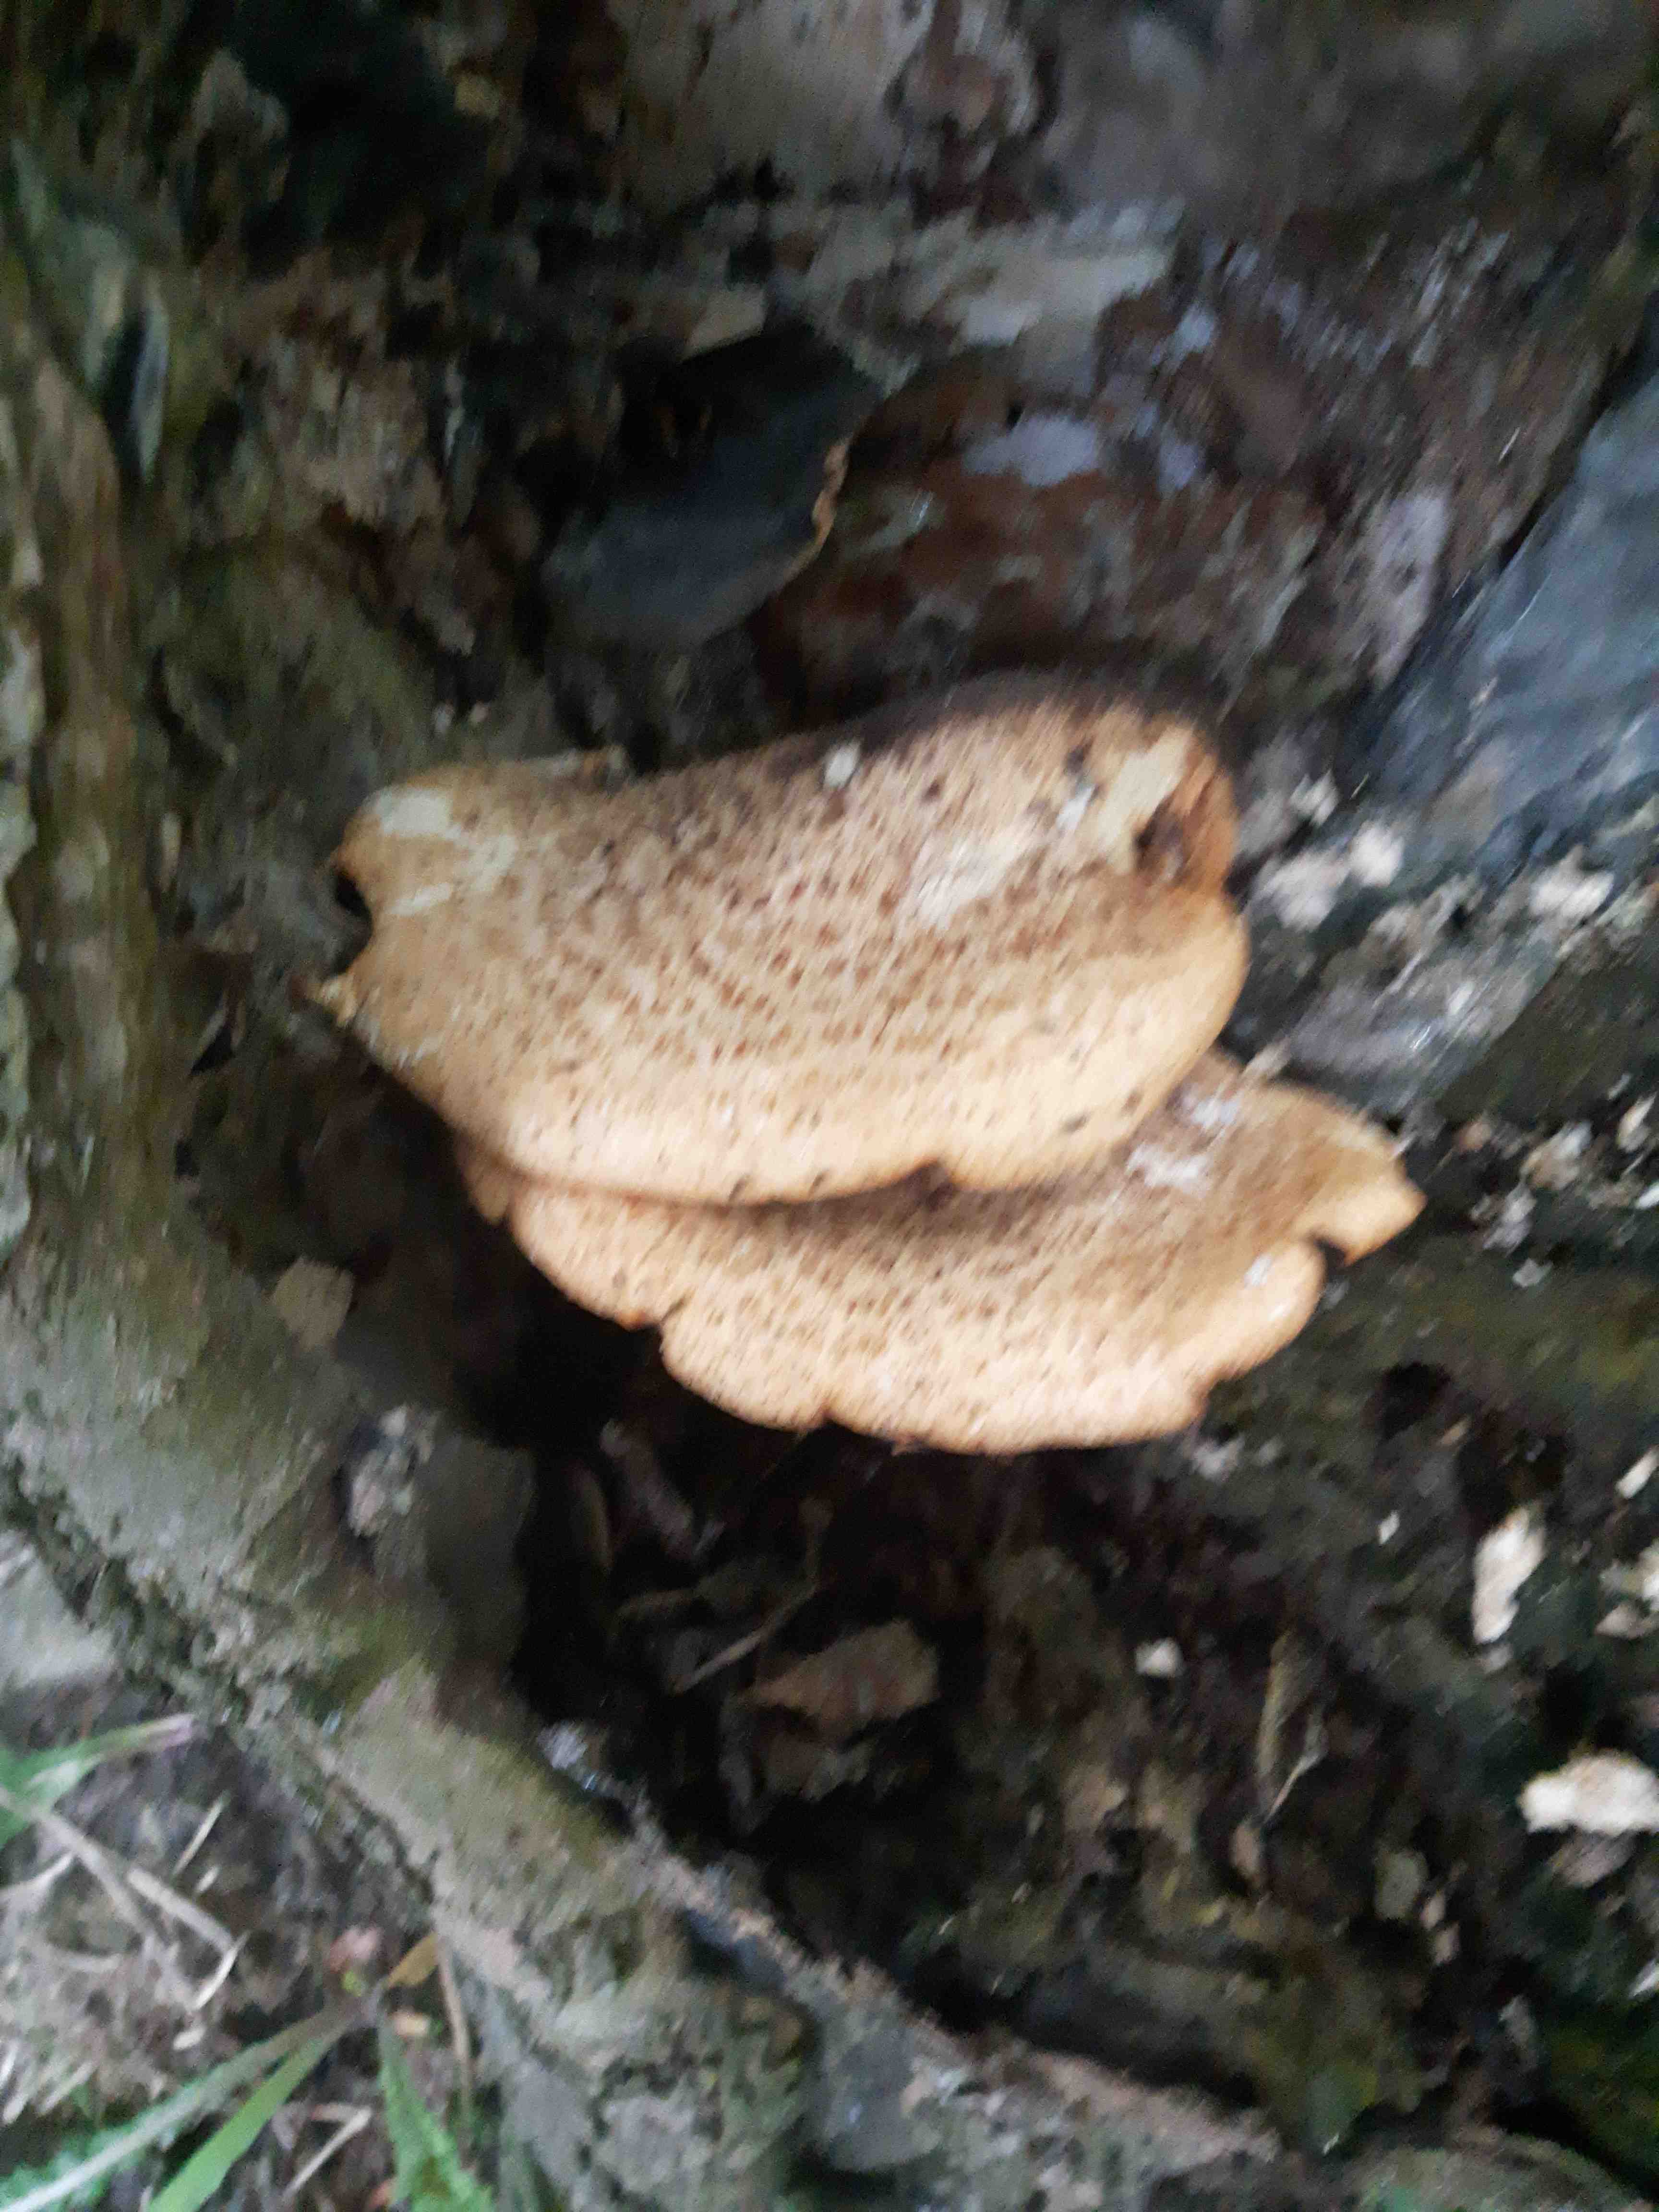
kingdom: Fungi
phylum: Basidiomycota
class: Agaricomycetes
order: Polyporales
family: Polyporaceae
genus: Cerioporus
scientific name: Cerioporus squamosus
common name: skællet stilkporesvamp
